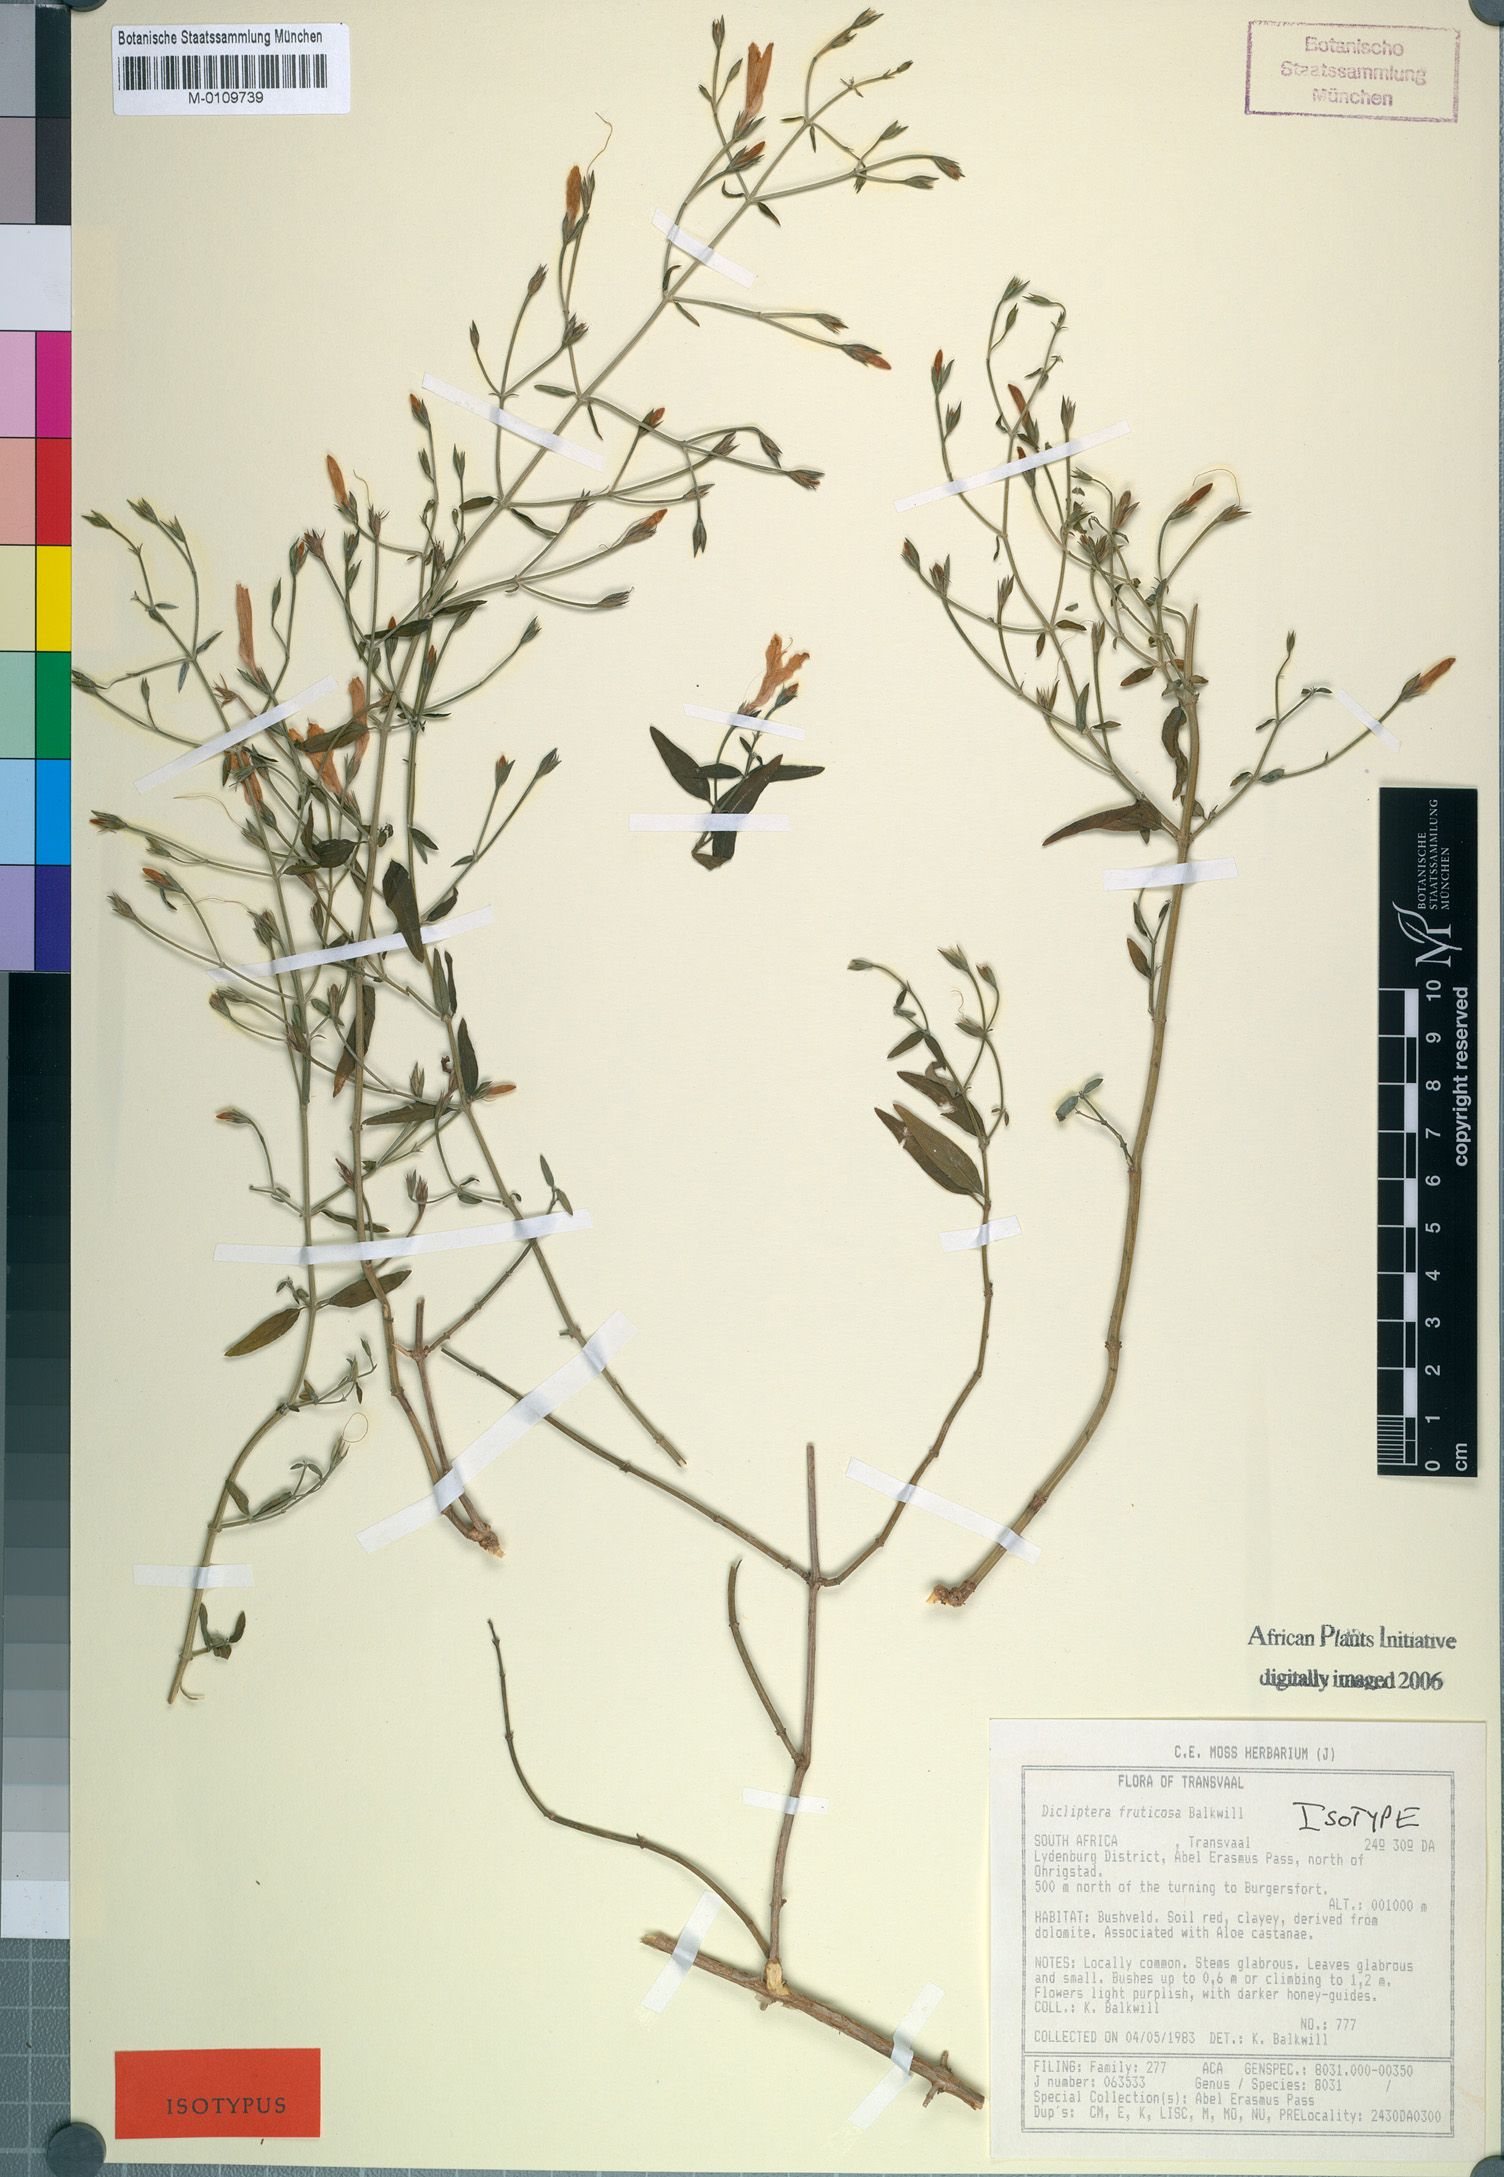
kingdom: Plantae
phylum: Tracheophyta
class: Magnoliopsida
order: Lamiales
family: Acanthaceae
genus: Dicliptera
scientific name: Dicliptera fruticosa
